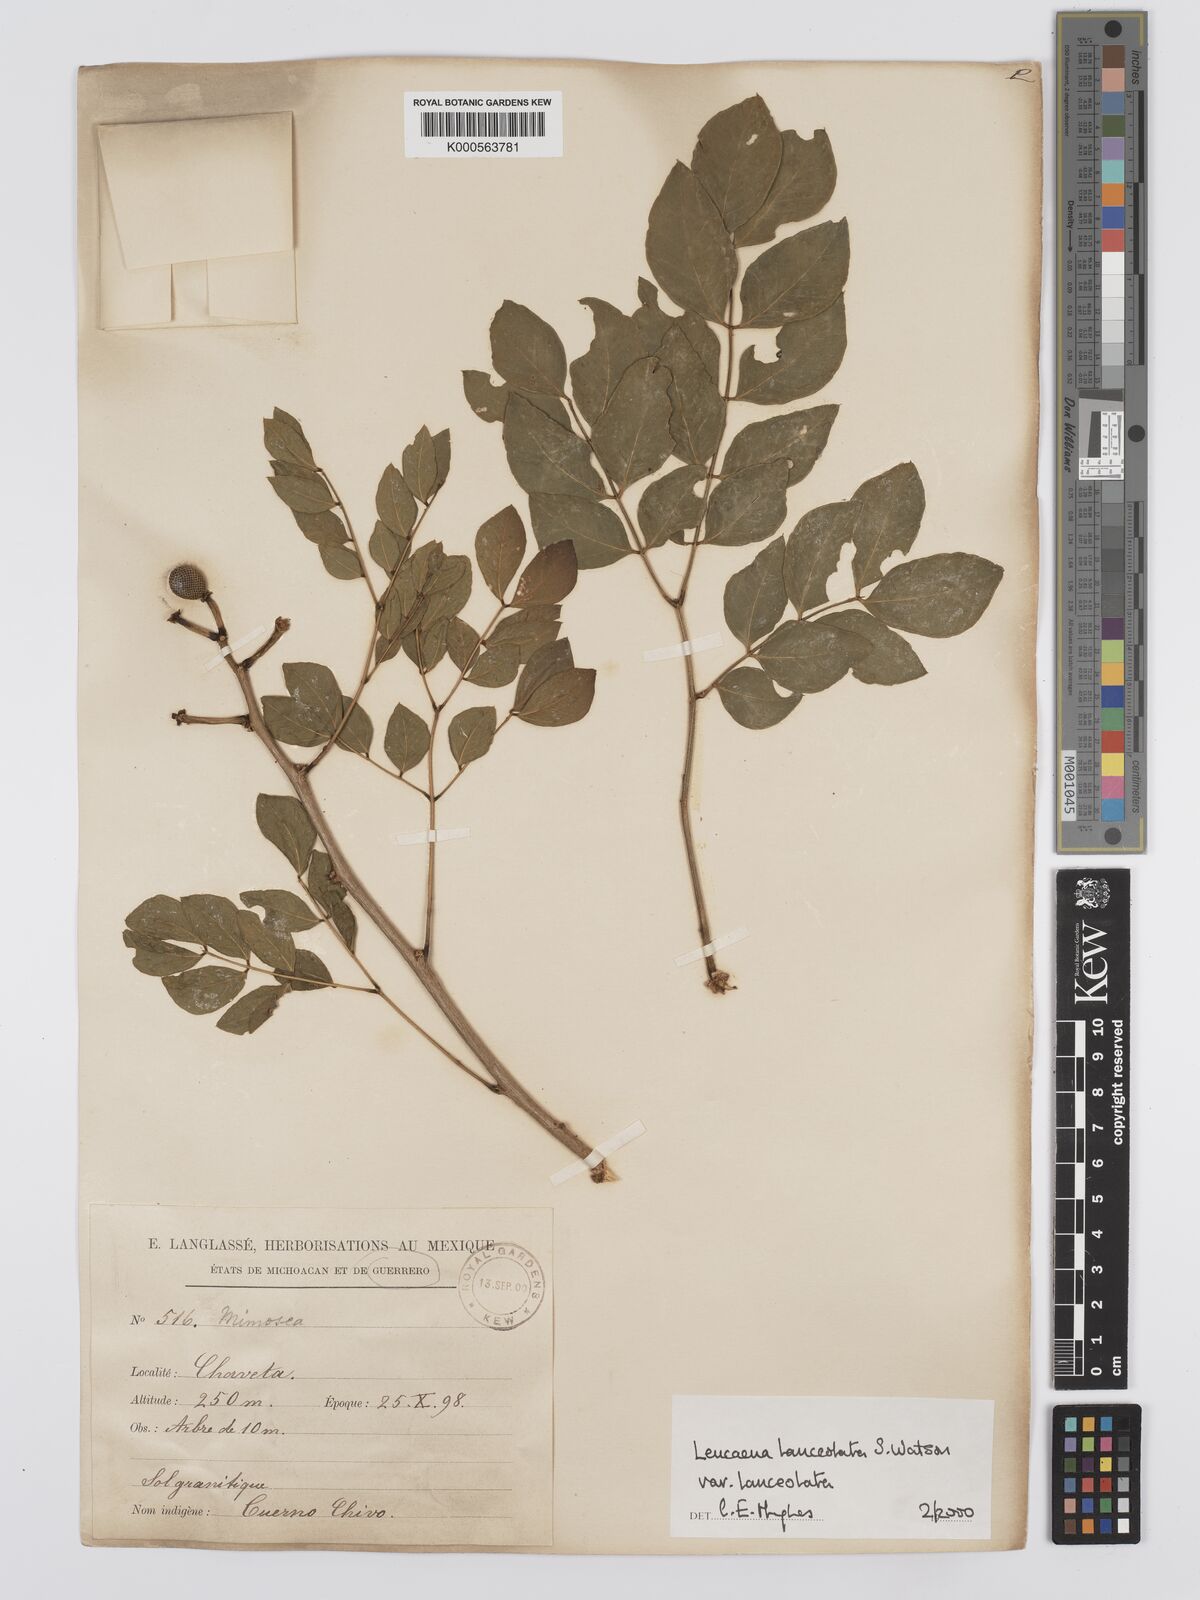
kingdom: Plantae
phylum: Tracheophyta
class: Magnoliopsida
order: Fabales
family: Fabaceae
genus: Leucaena
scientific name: Leucaena lanceolata
